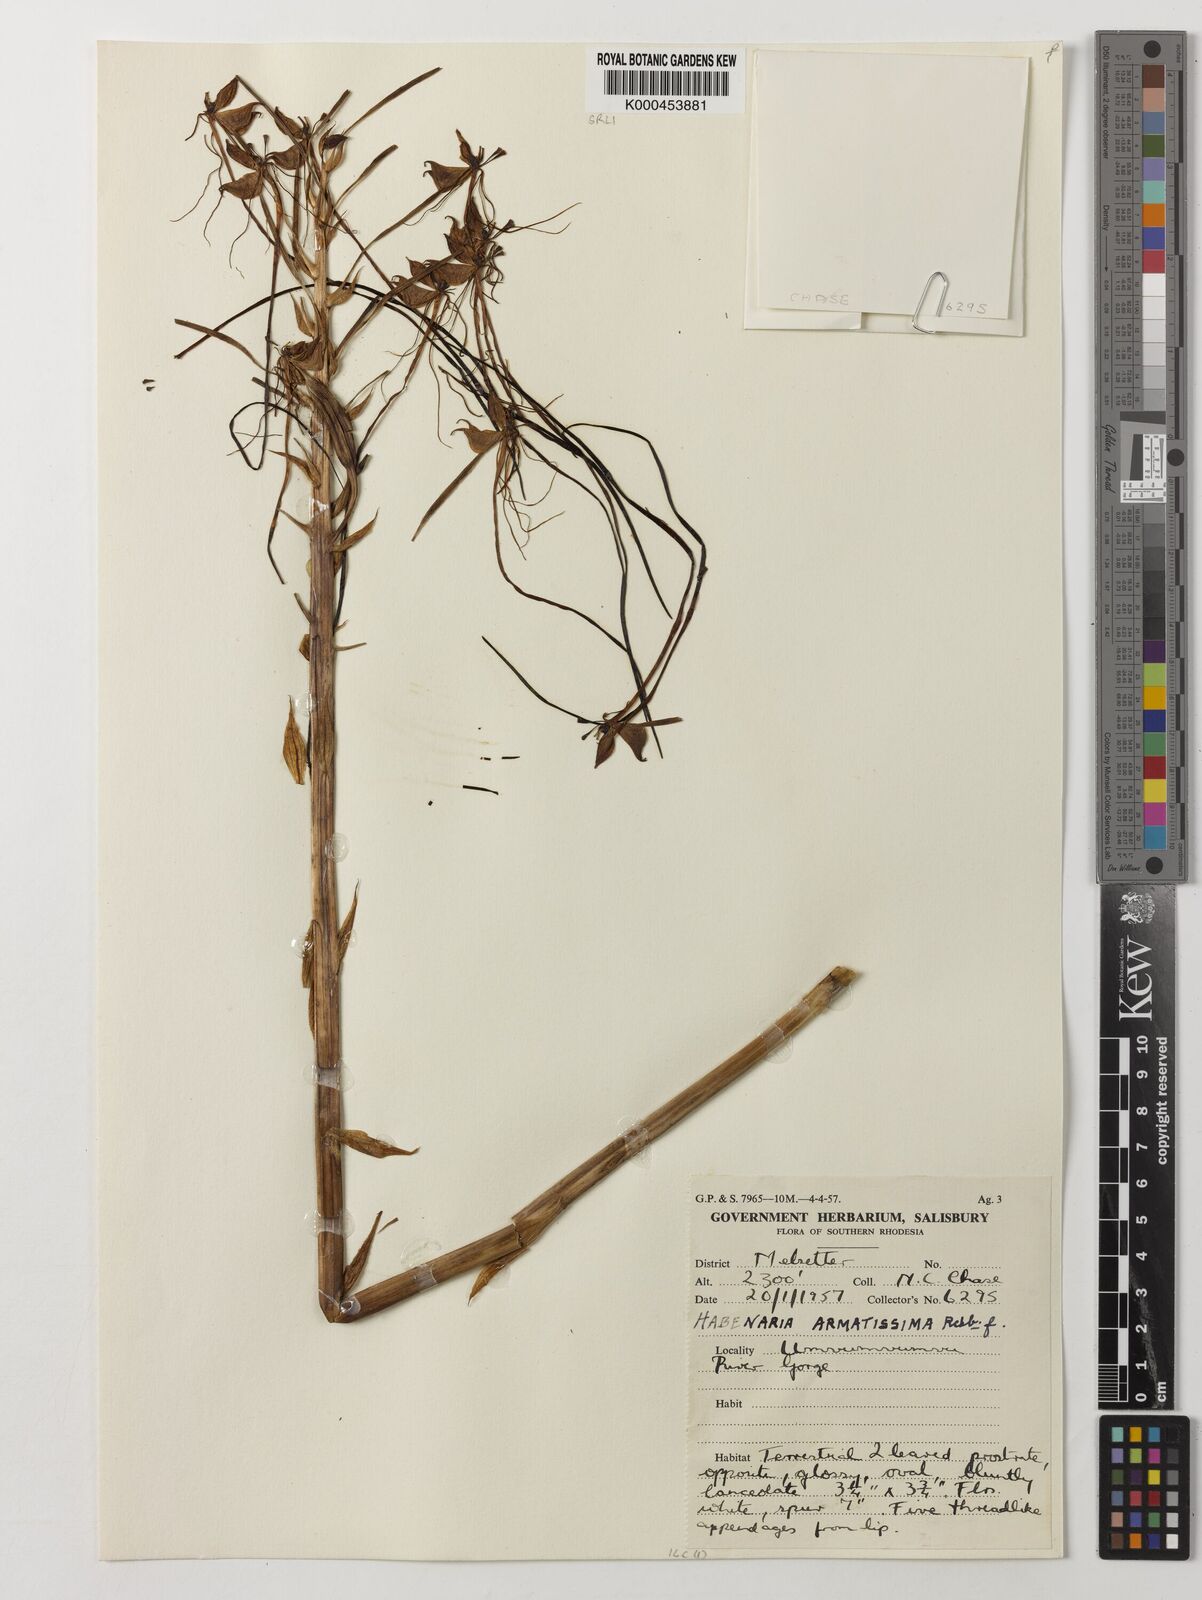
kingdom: Plantae
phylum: Tracheophyta
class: Liliopsida
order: Asparagales
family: Orchidaceae
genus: Habenaria
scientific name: Habenaria armatissima
